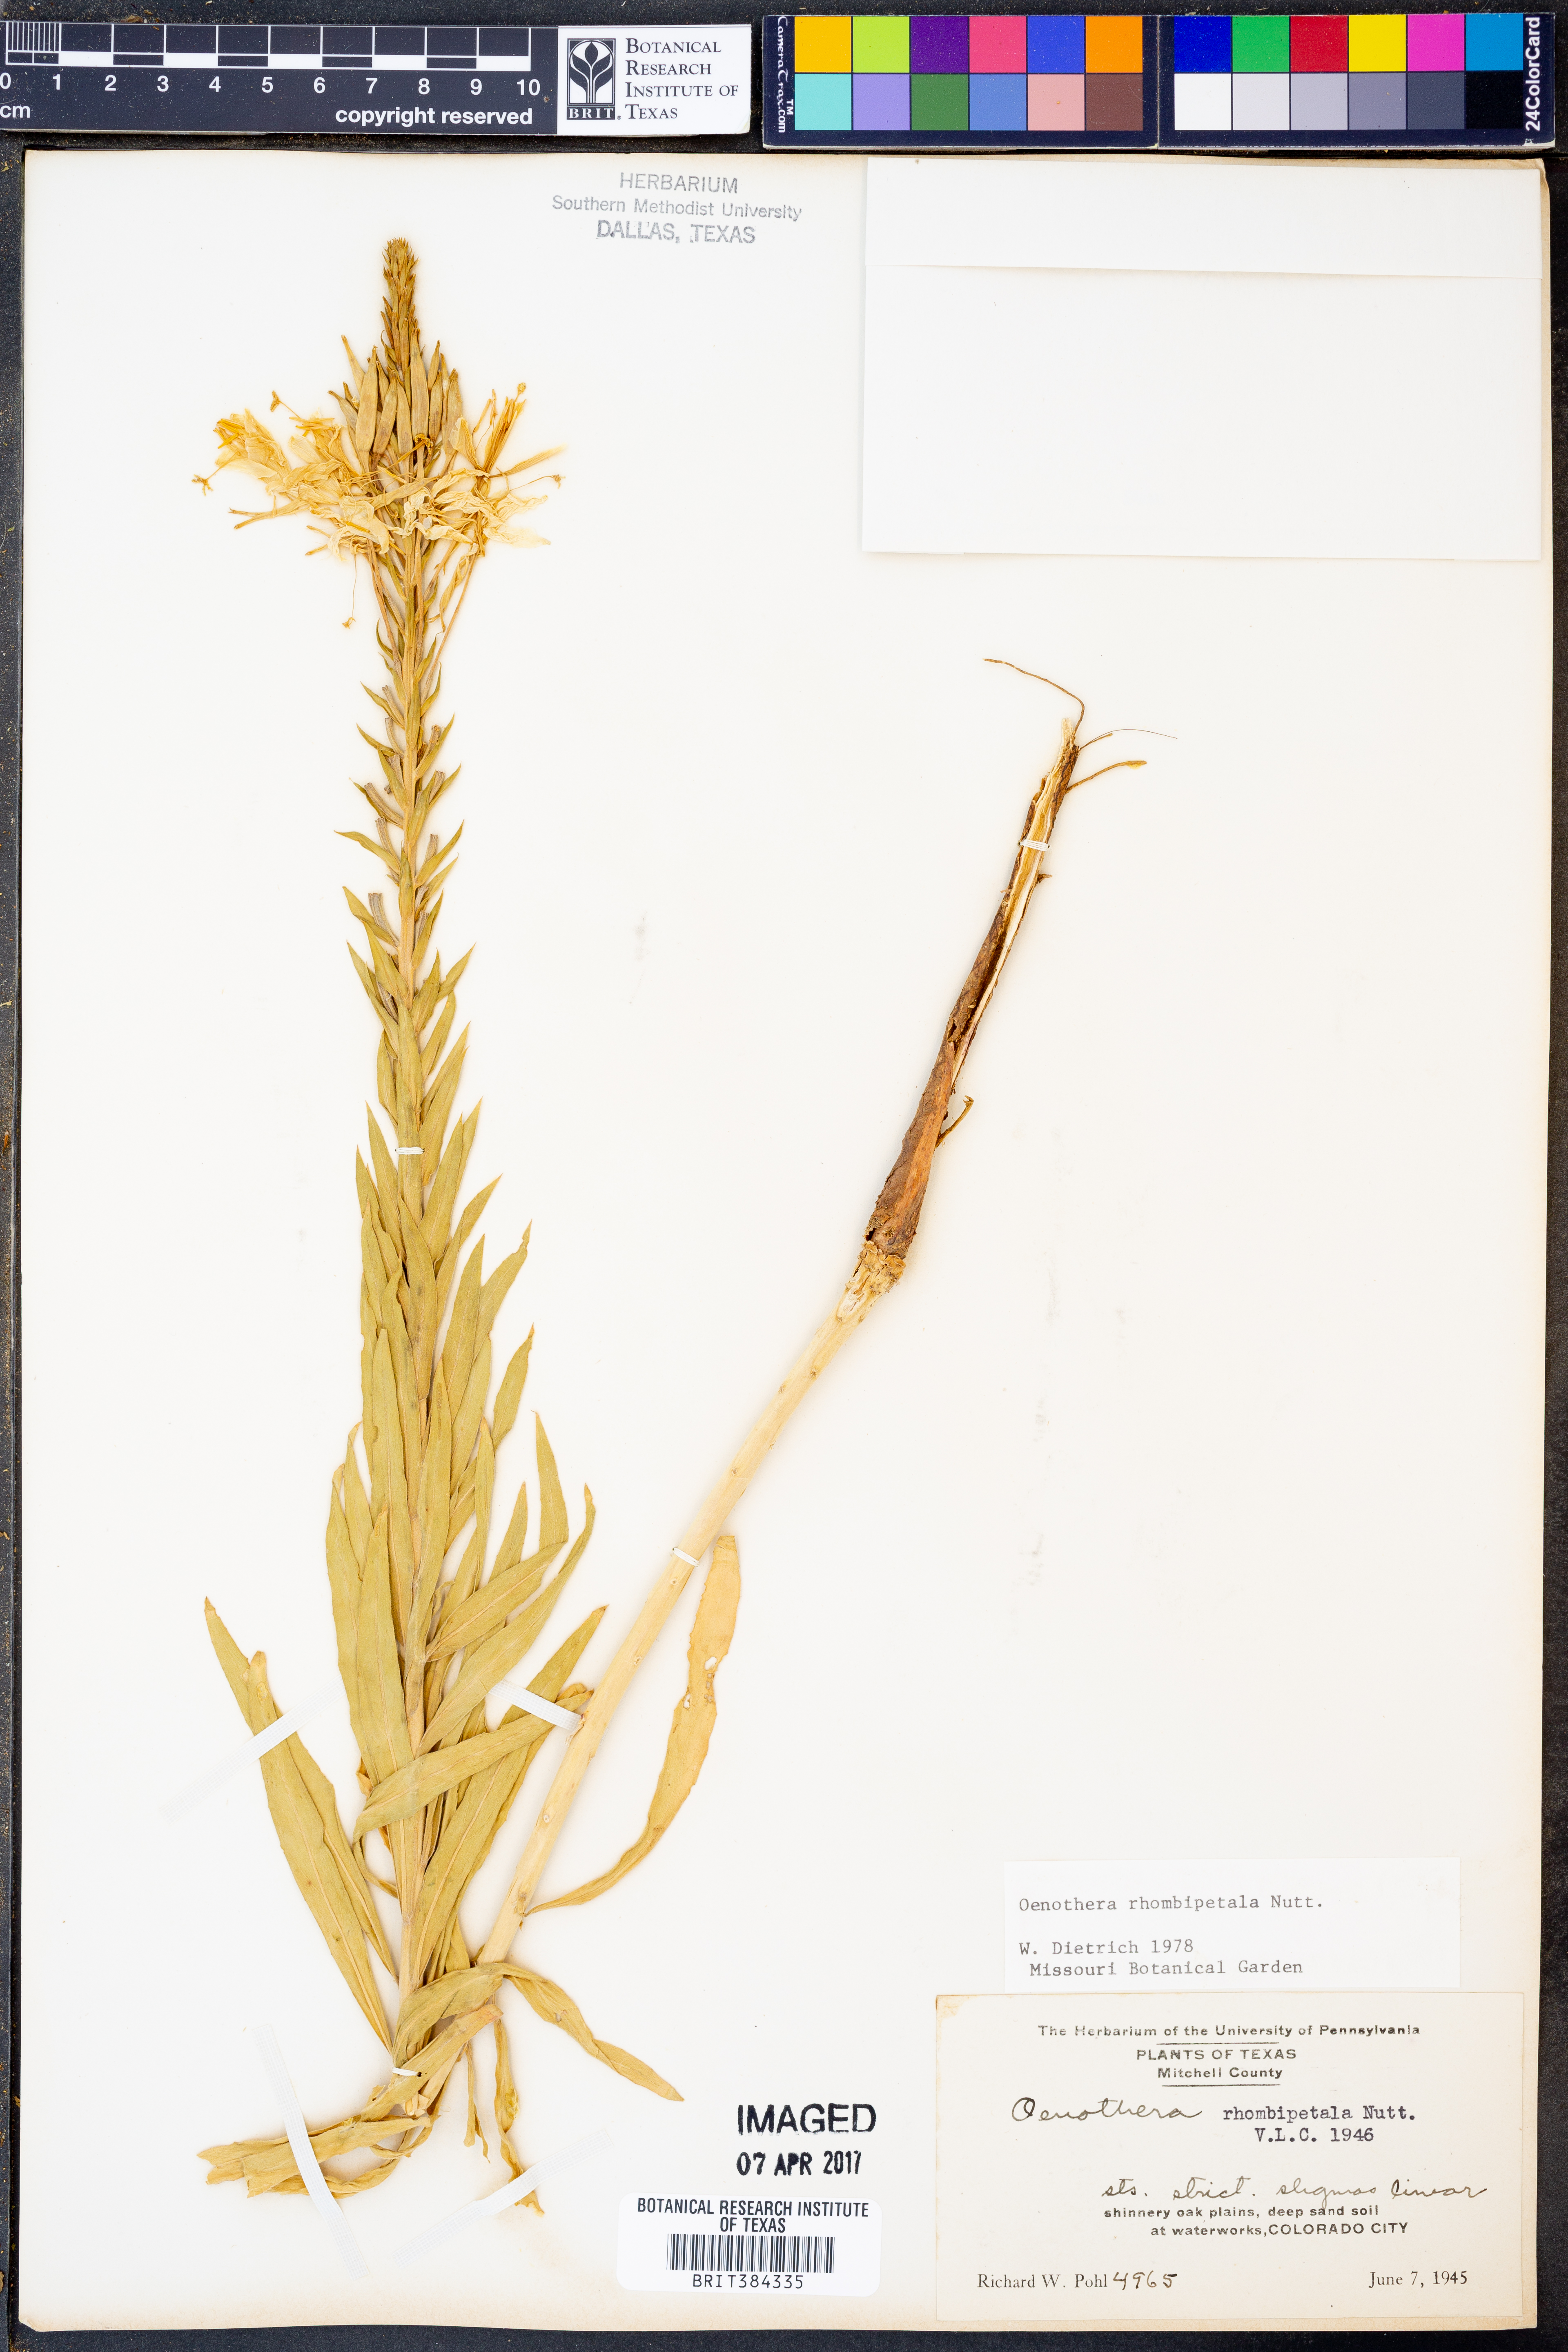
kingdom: Plantae
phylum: Tracheophyta
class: Magnoliopsida
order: Myrtales
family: Onagraceae
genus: Oenothera
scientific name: Oenothera rhombipetala
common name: Four-points evening-primrose
